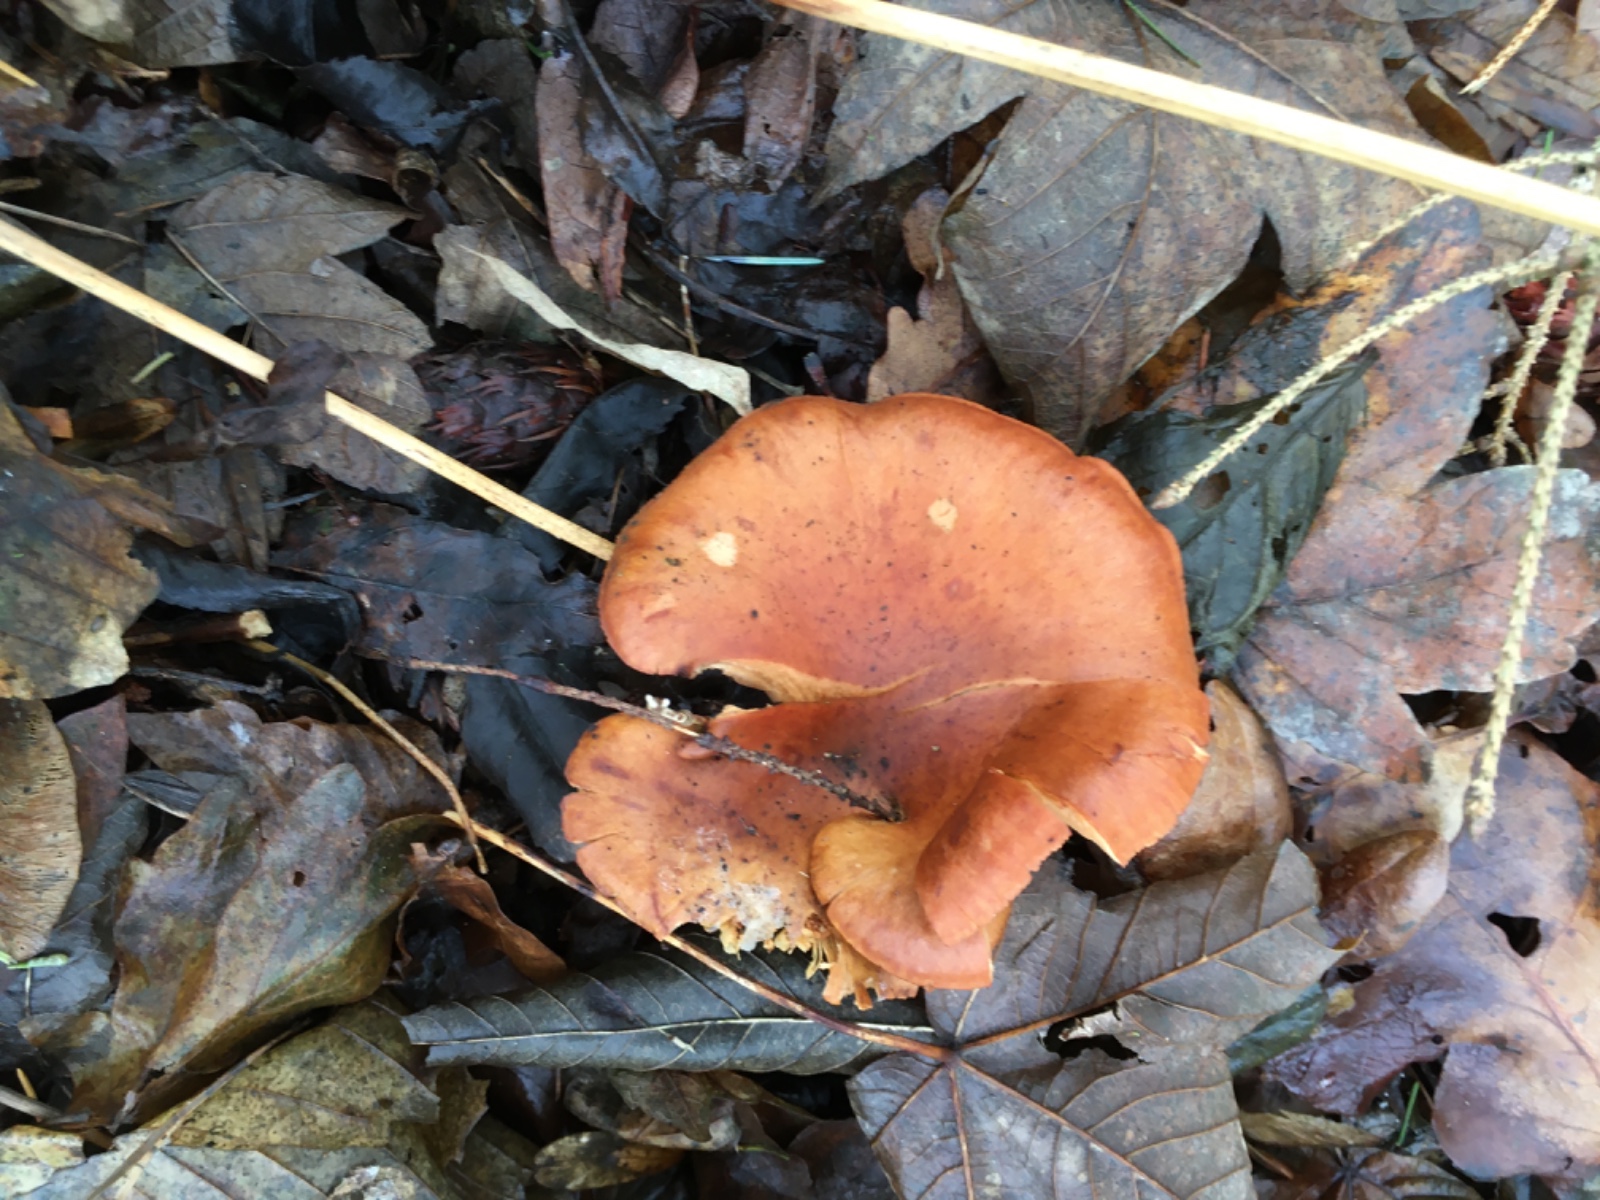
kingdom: Fungi
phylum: Basidiomycota
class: Agaricomycetes
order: Agaricales
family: Tricholomataceae
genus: Paralepista
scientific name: Paralepista flaccida
